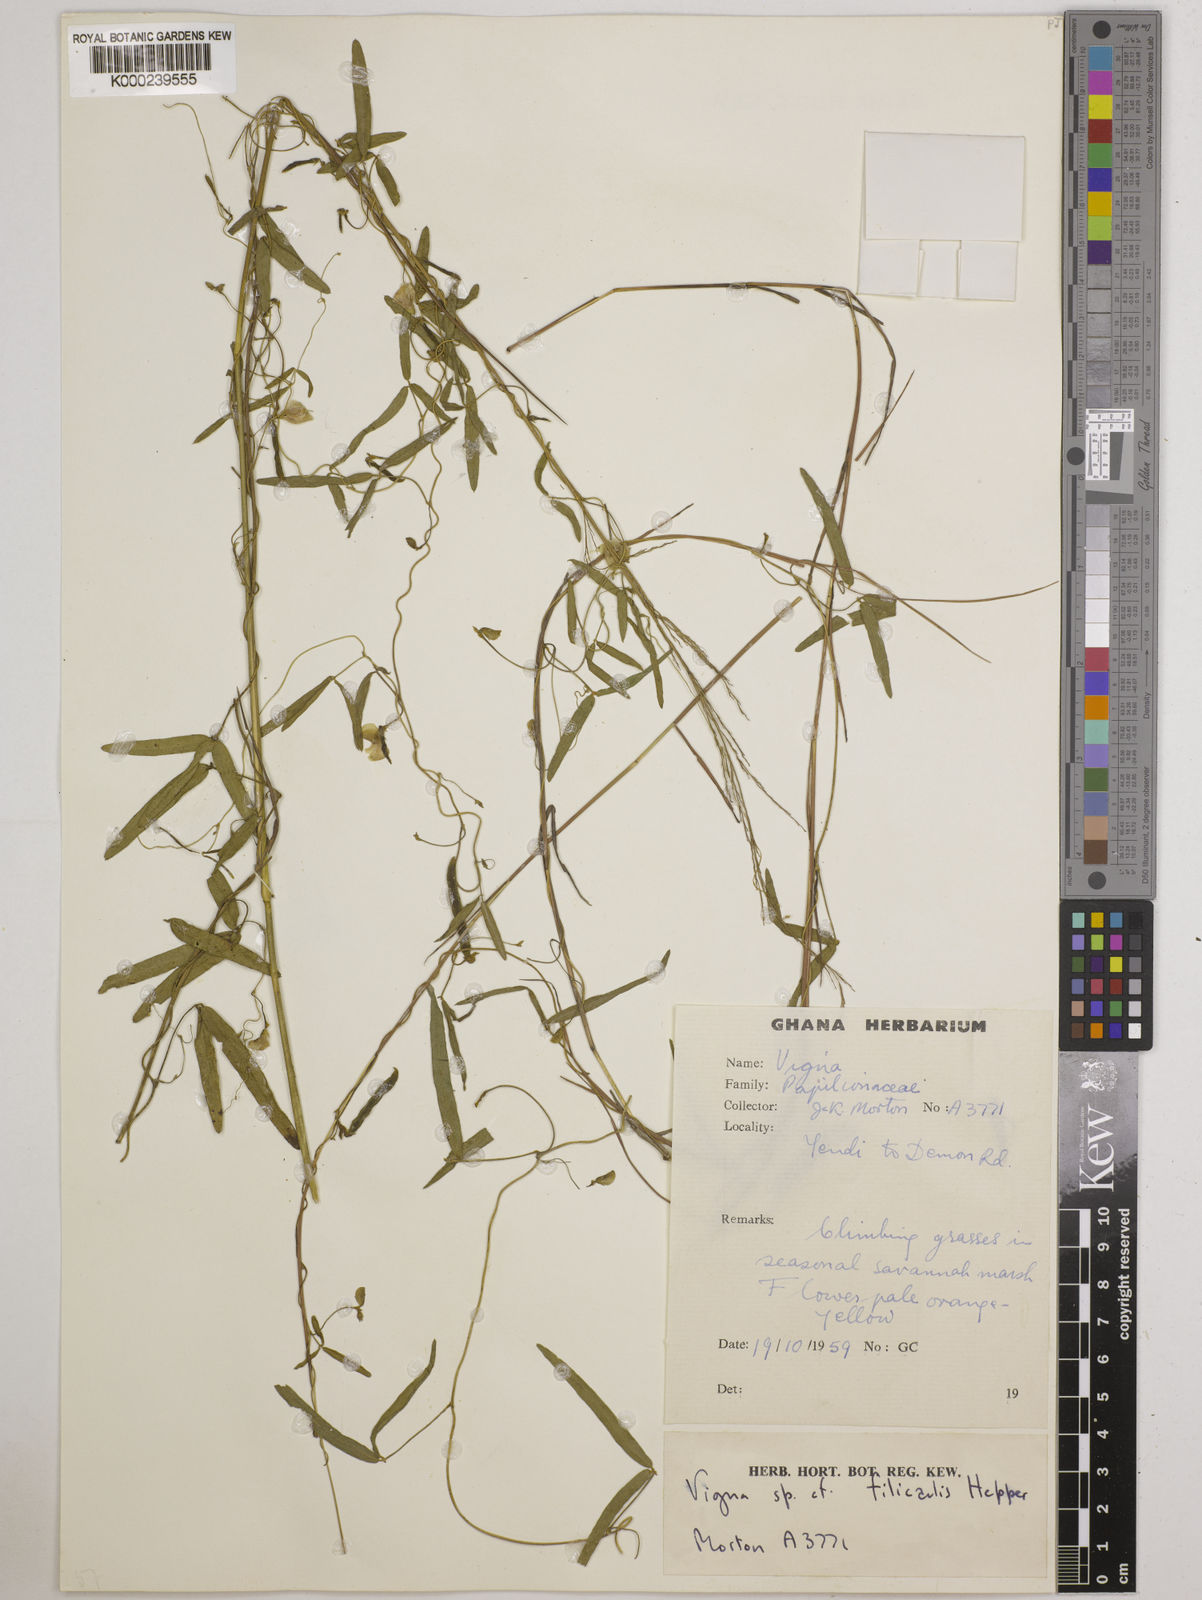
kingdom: Plantae
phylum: Tracheophyta
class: Magnoliopsida
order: Fabales
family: Fabaceae
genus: Vigna
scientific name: Vigna filicaulis
